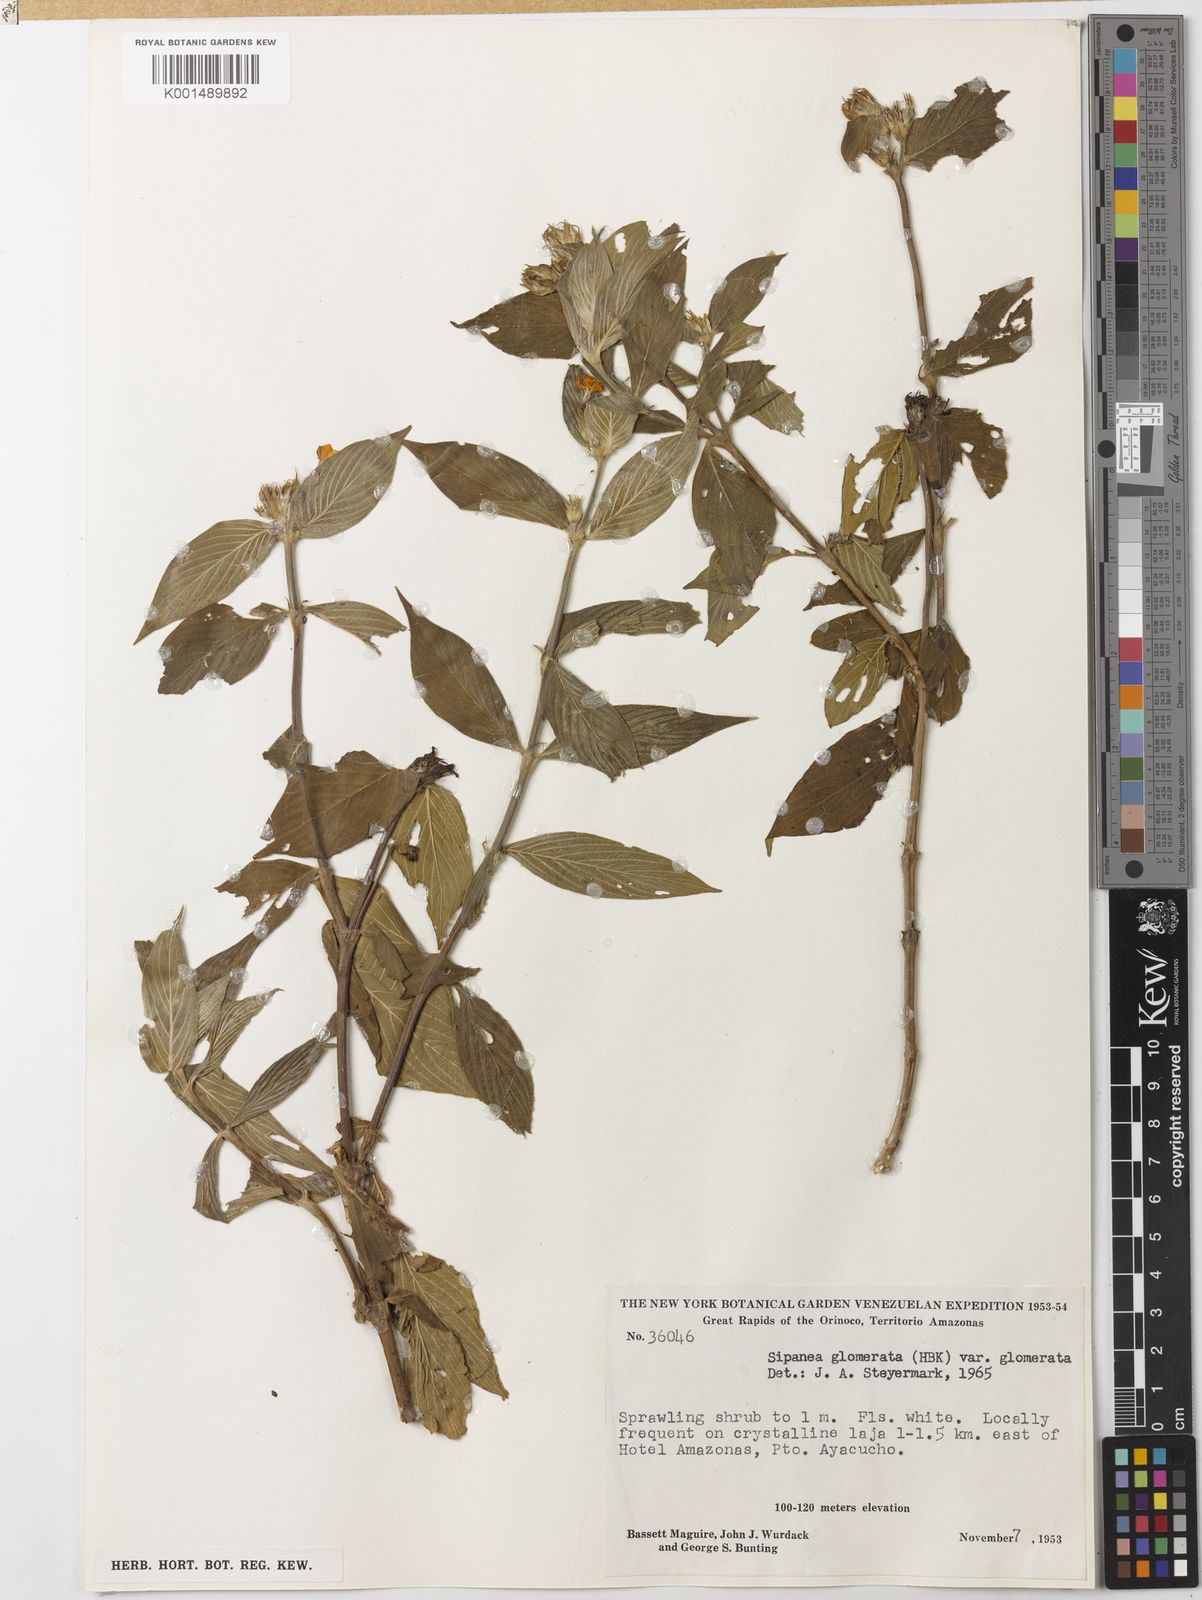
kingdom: Plantae
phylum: Tracheophyta
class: Magnoliopsida
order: Gentianales
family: Rubiaceae
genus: Sipanea
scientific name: Sipanea glomerata
